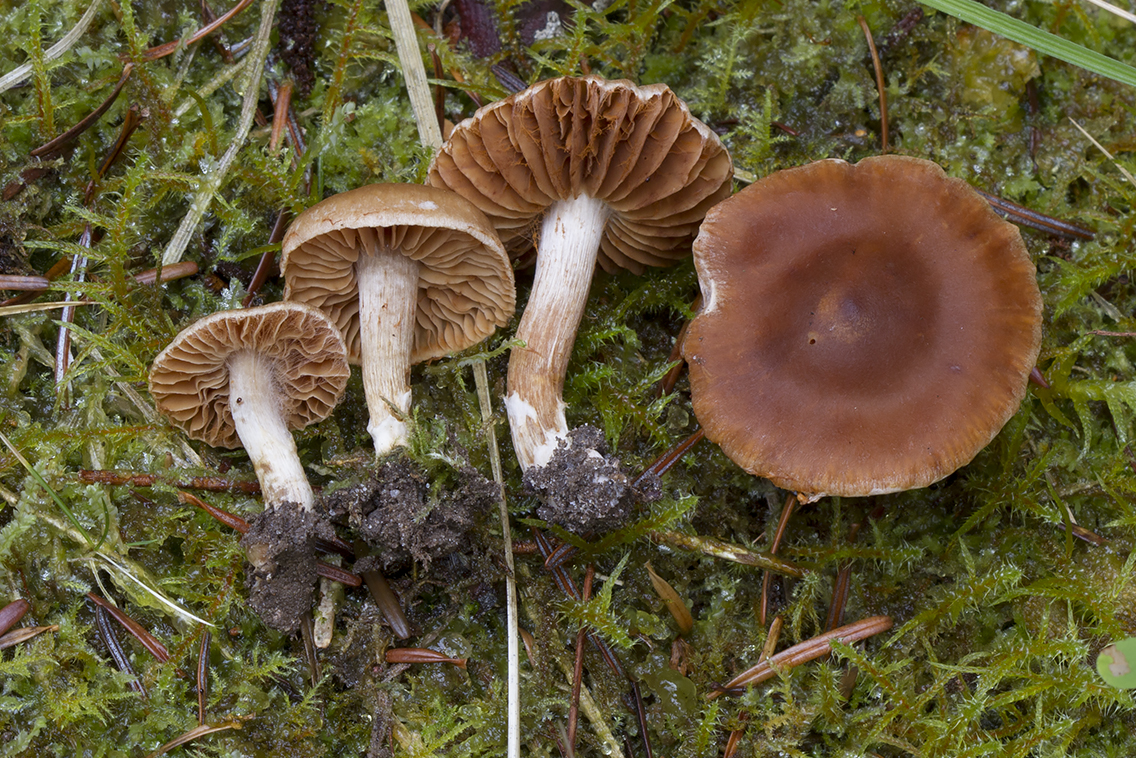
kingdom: Fungi
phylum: Basidiomycota
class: Agaricomycetes
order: Agaricales
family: Cortinariaceae
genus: Cortinarius
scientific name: Cortinarius hinnuleus
